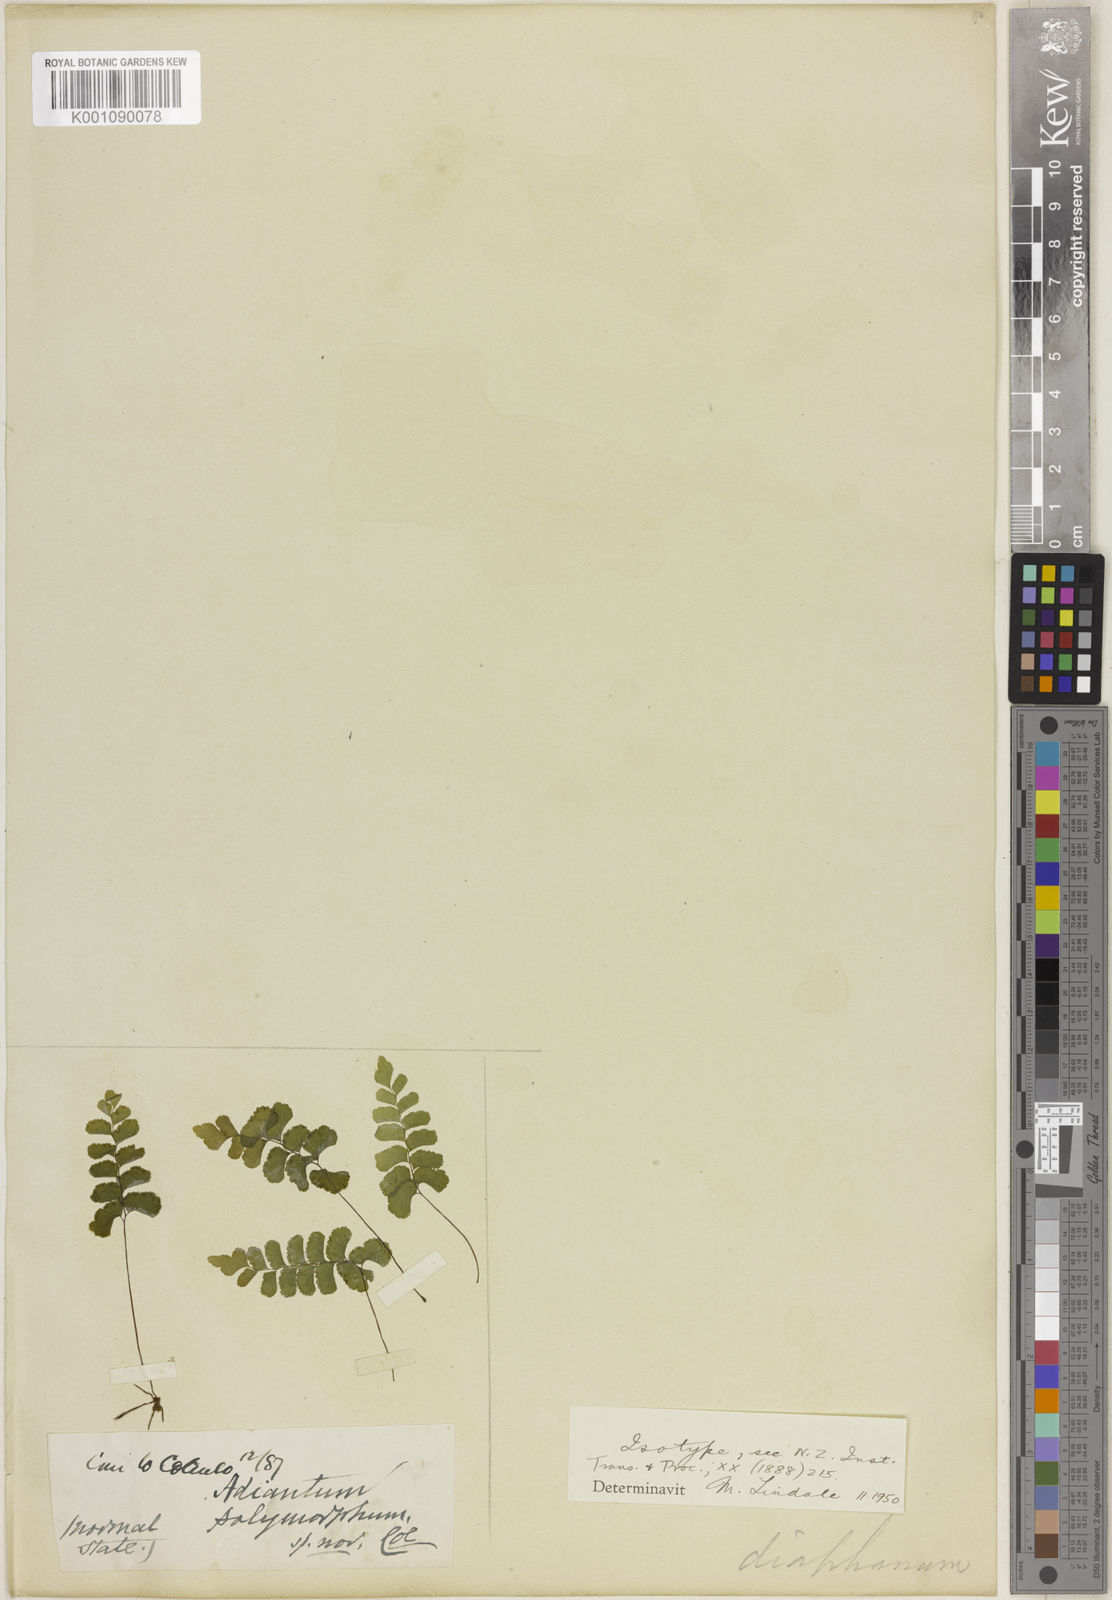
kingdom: Plantae
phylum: Tracheophyta
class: Polypodiopsida
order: Polypodiales
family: Pteridaceae
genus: Adiantum
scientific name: Adiantum diaphanum
